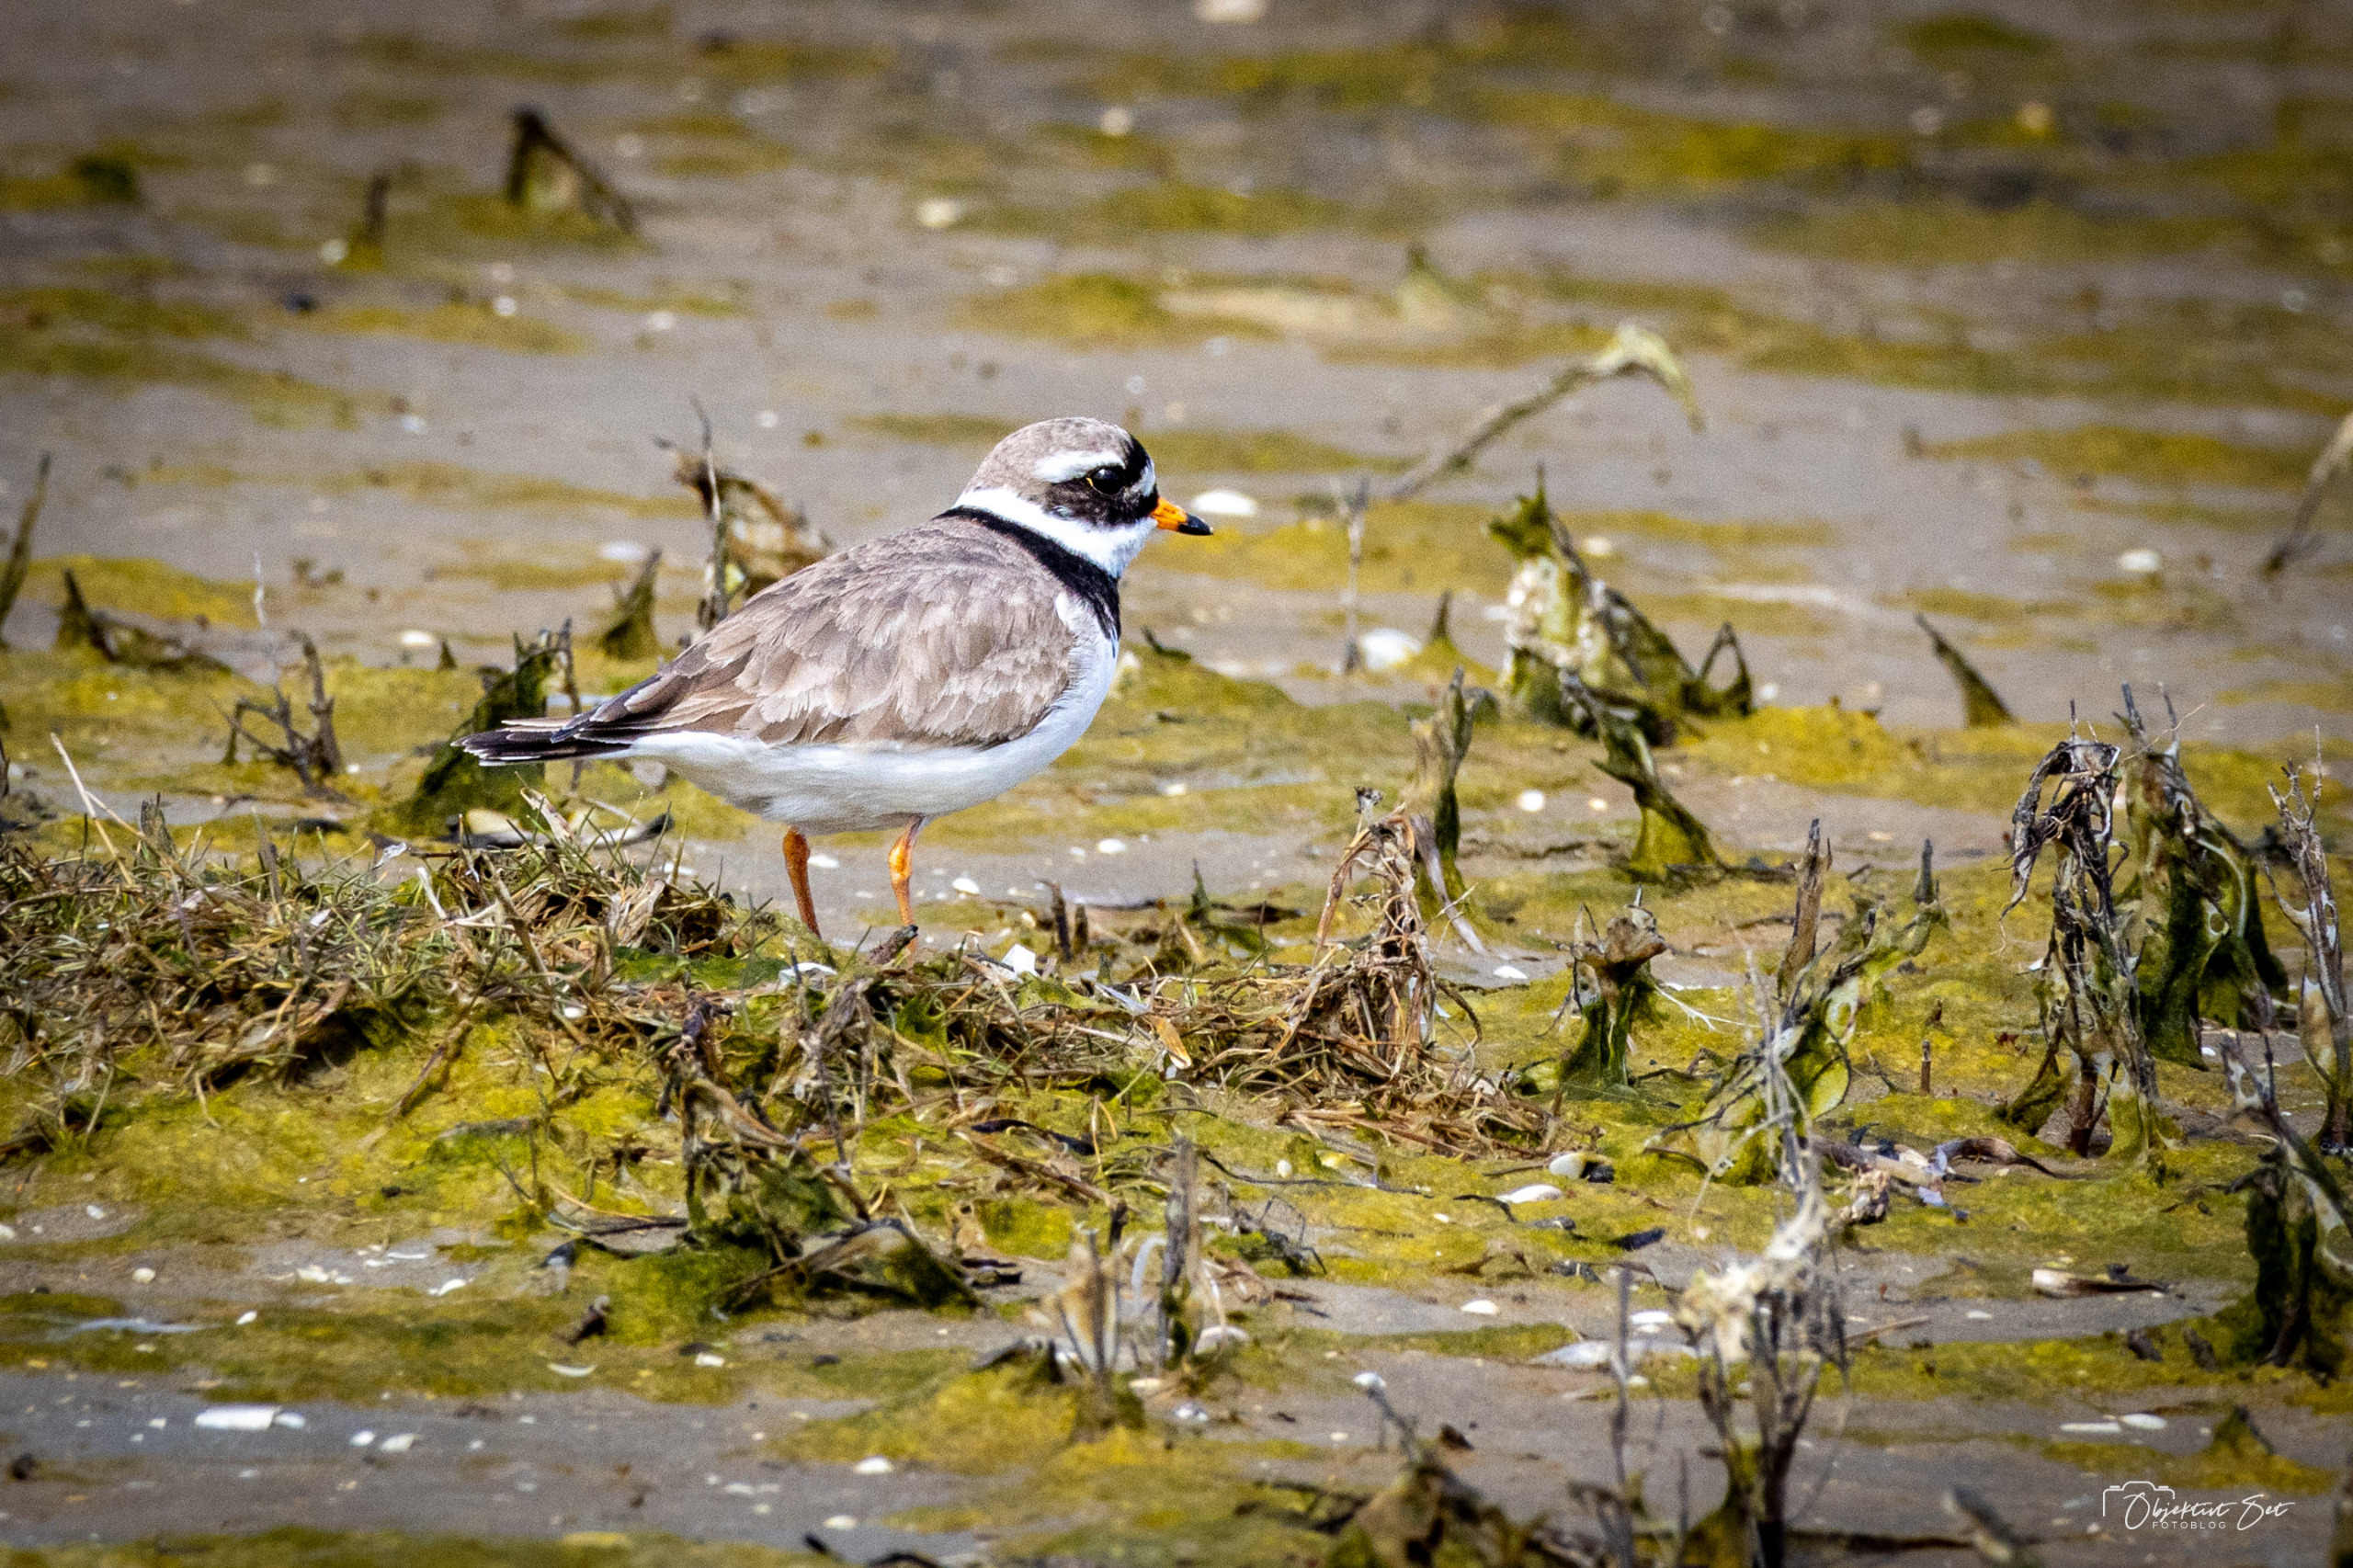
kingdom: Animalia
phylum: Chordata
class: Aves
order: Charadriiformes
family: Charadriidae
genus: Charadrius
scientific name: Charadrius hiaticula
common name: Stor præstekrave
